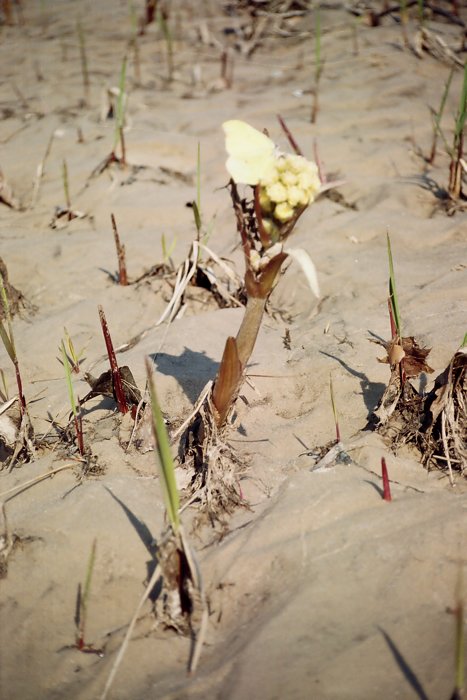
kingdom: Plantae
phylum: Tracheophyta
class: Magnoliopsida
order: Asterales
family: Asteraceae
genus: Petasites
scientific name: Petasites spurius
